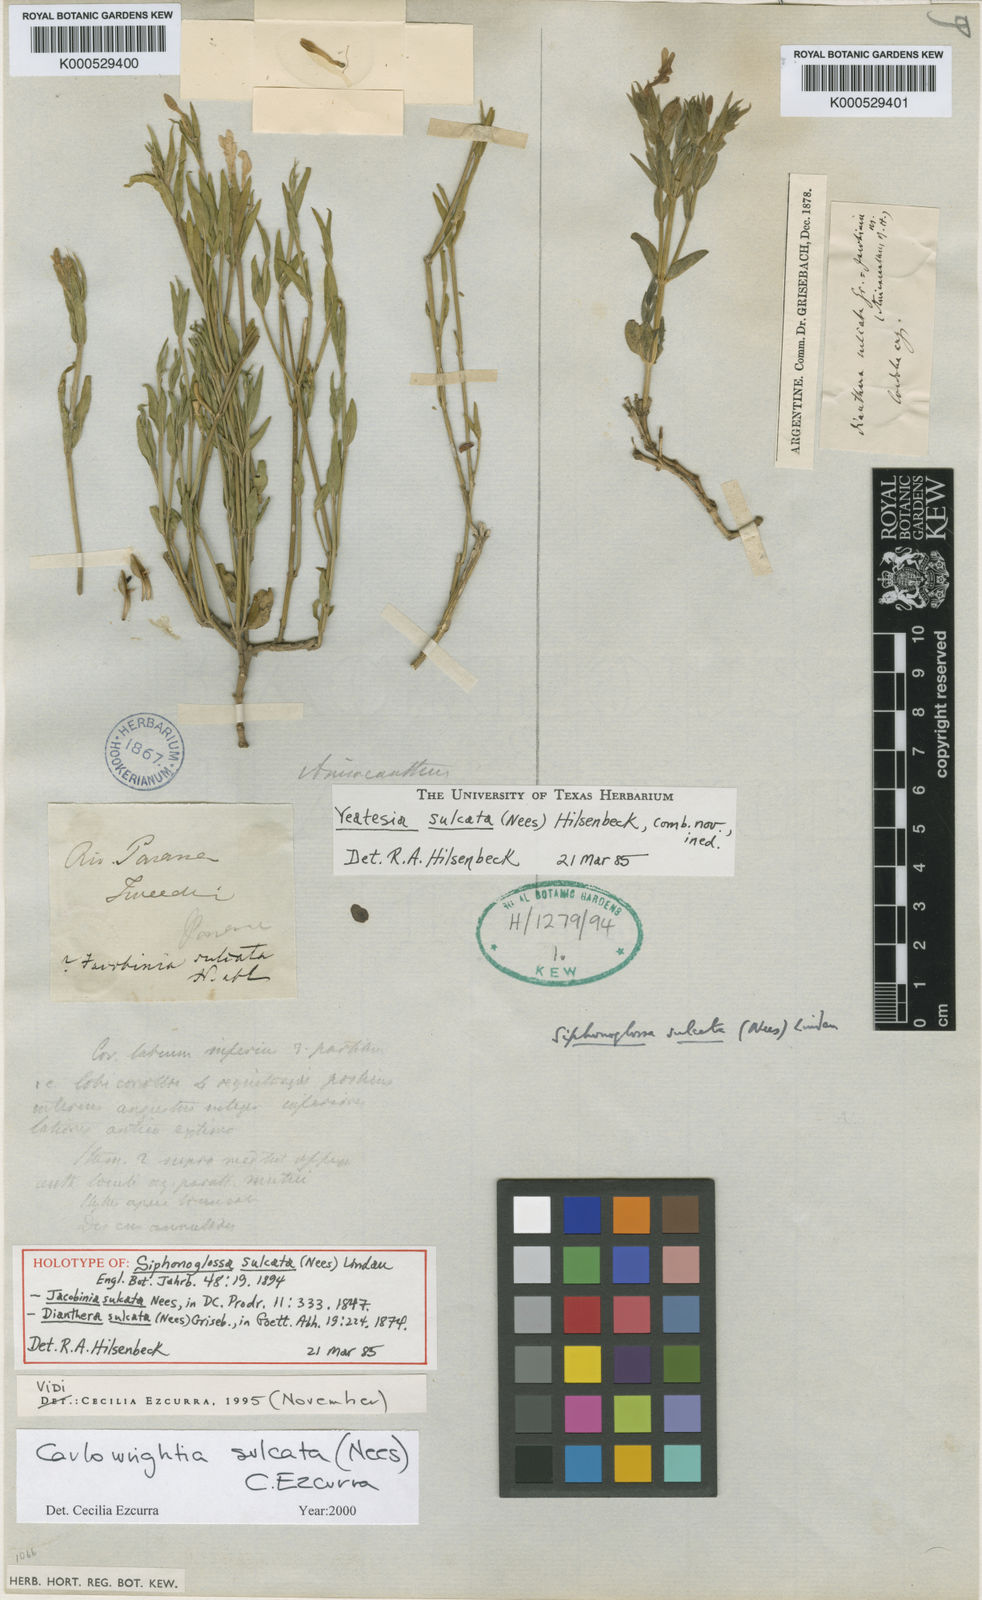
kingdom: Plantae
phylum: Tracheophyta
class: Magnoliopsida
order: Lamiales
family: Acanthaceae
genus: Thyrsacanthus
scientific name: Thyrsacanthus sulcatus
